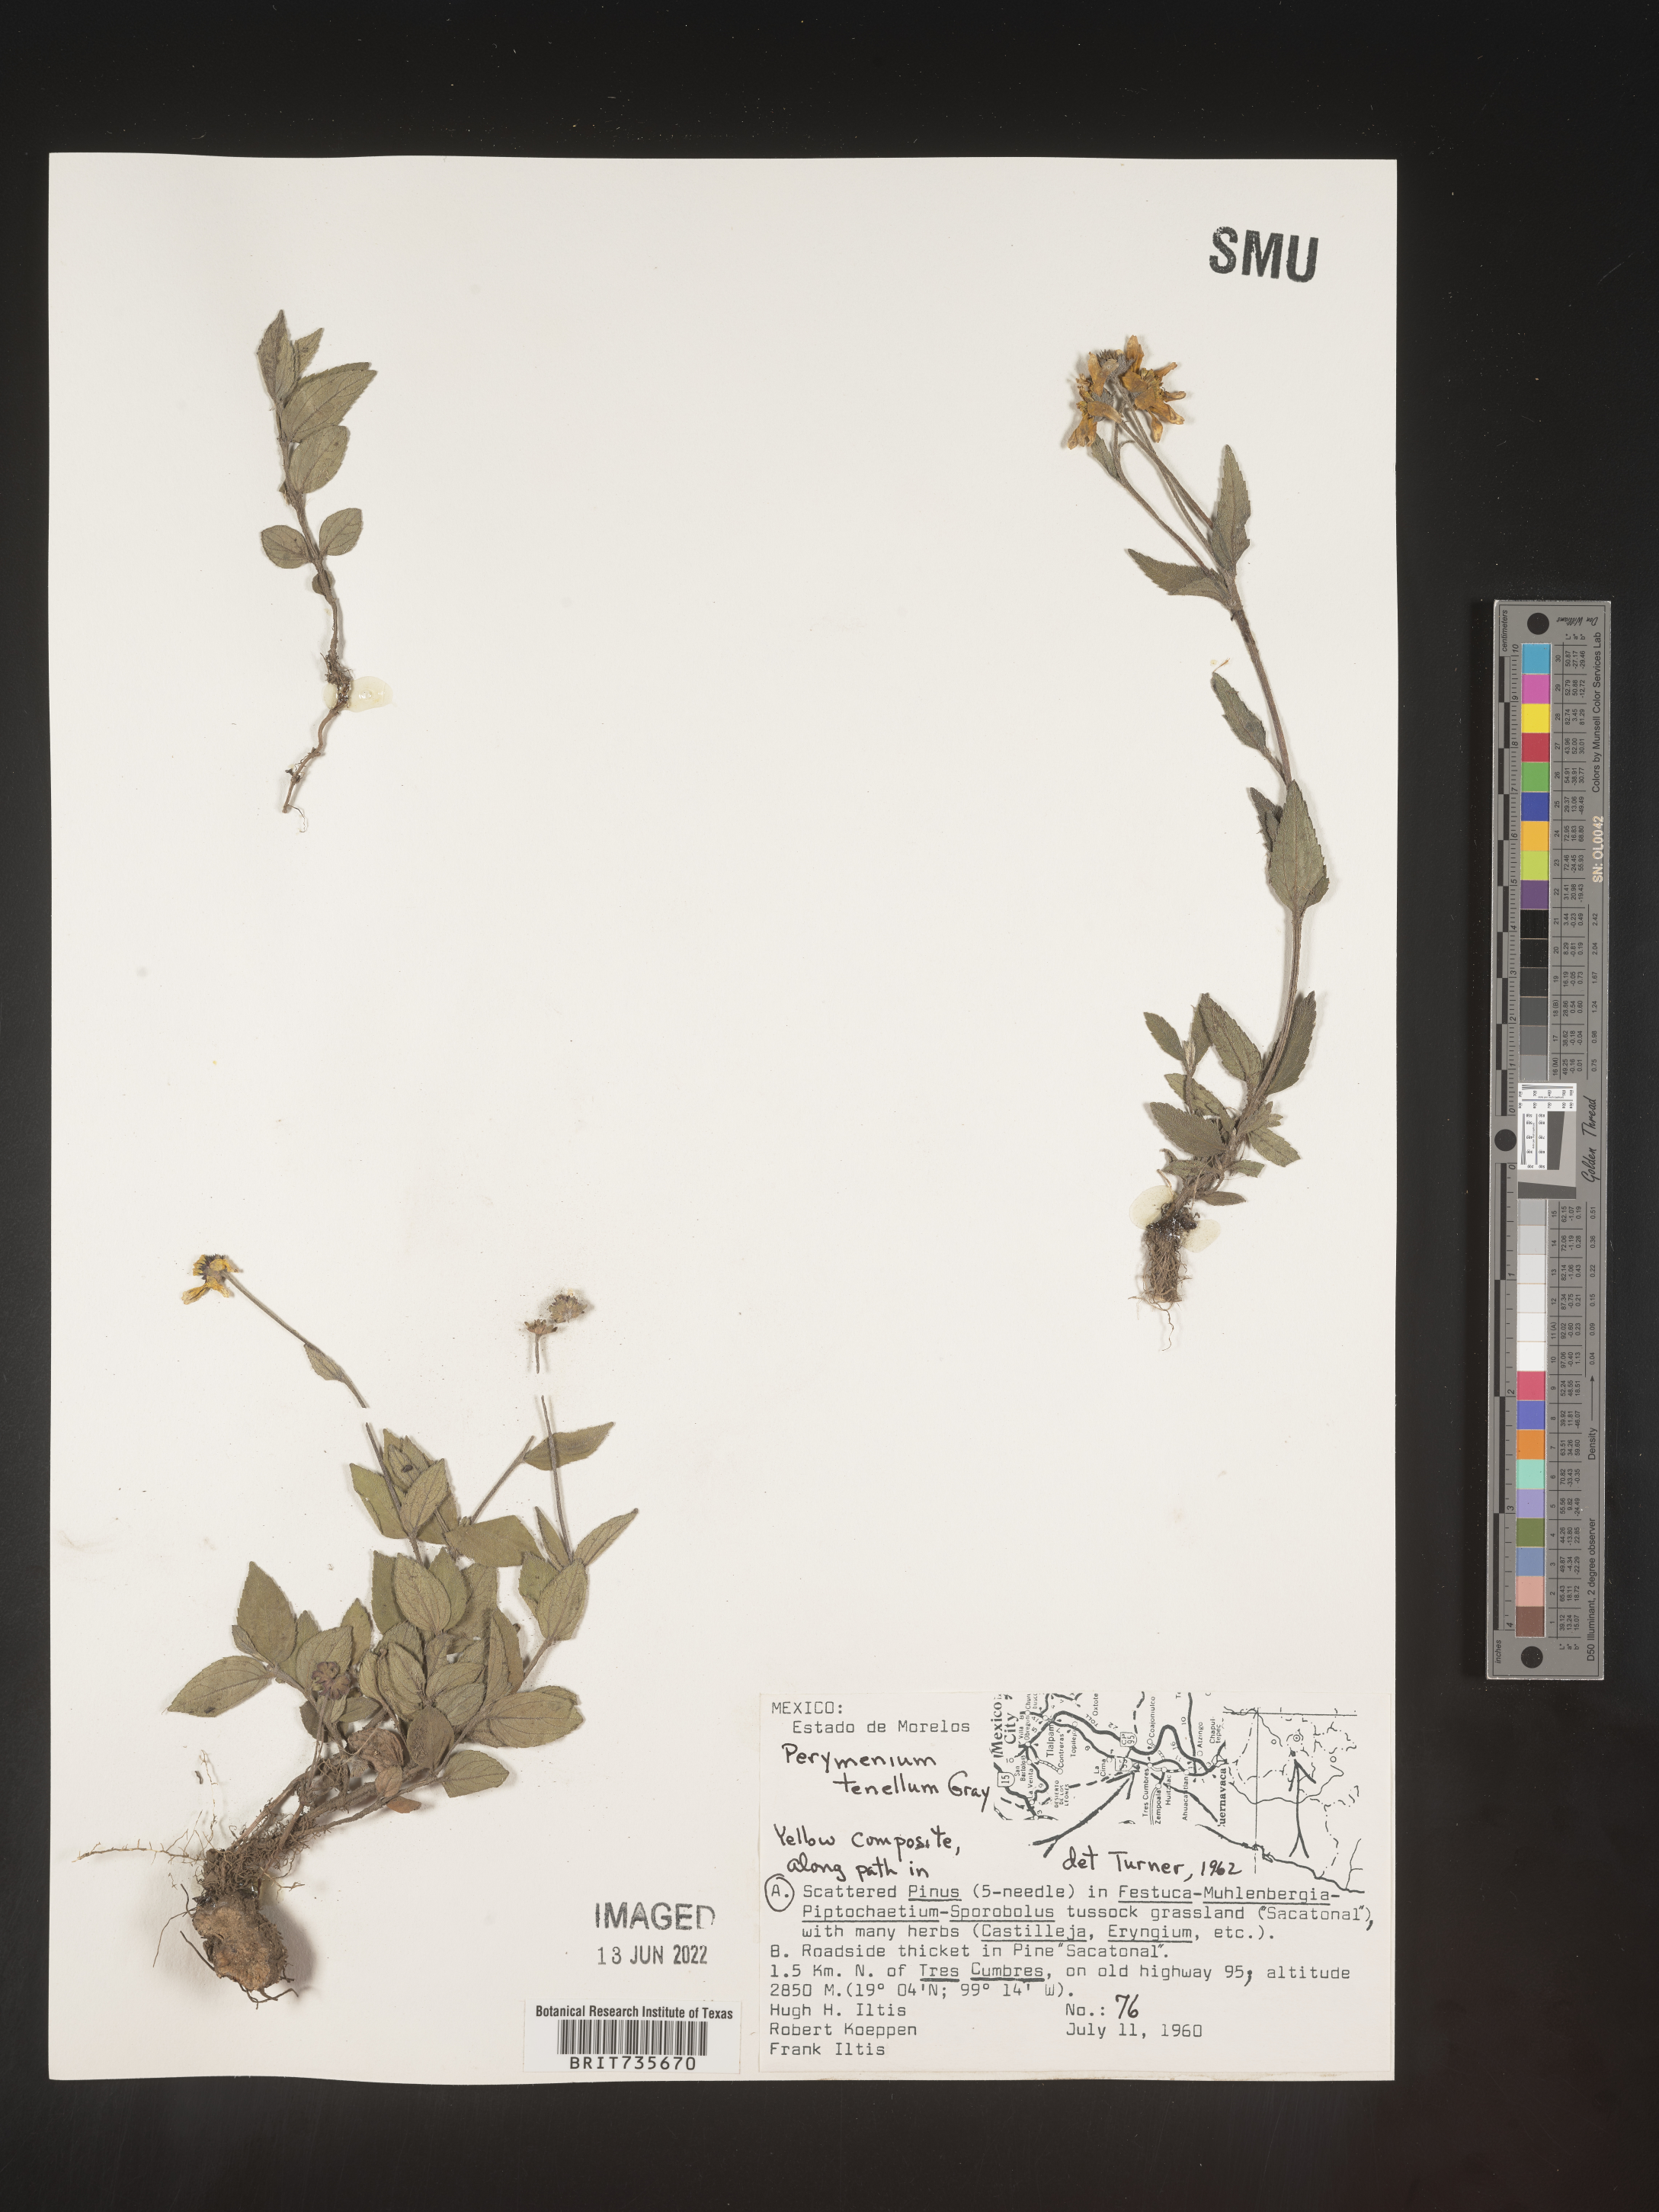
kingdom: Plantae
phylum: Tracheophyta
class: Magnoliopsida
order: Asterales
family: Asteraceae
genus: Perymenium
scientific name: Perymenium
